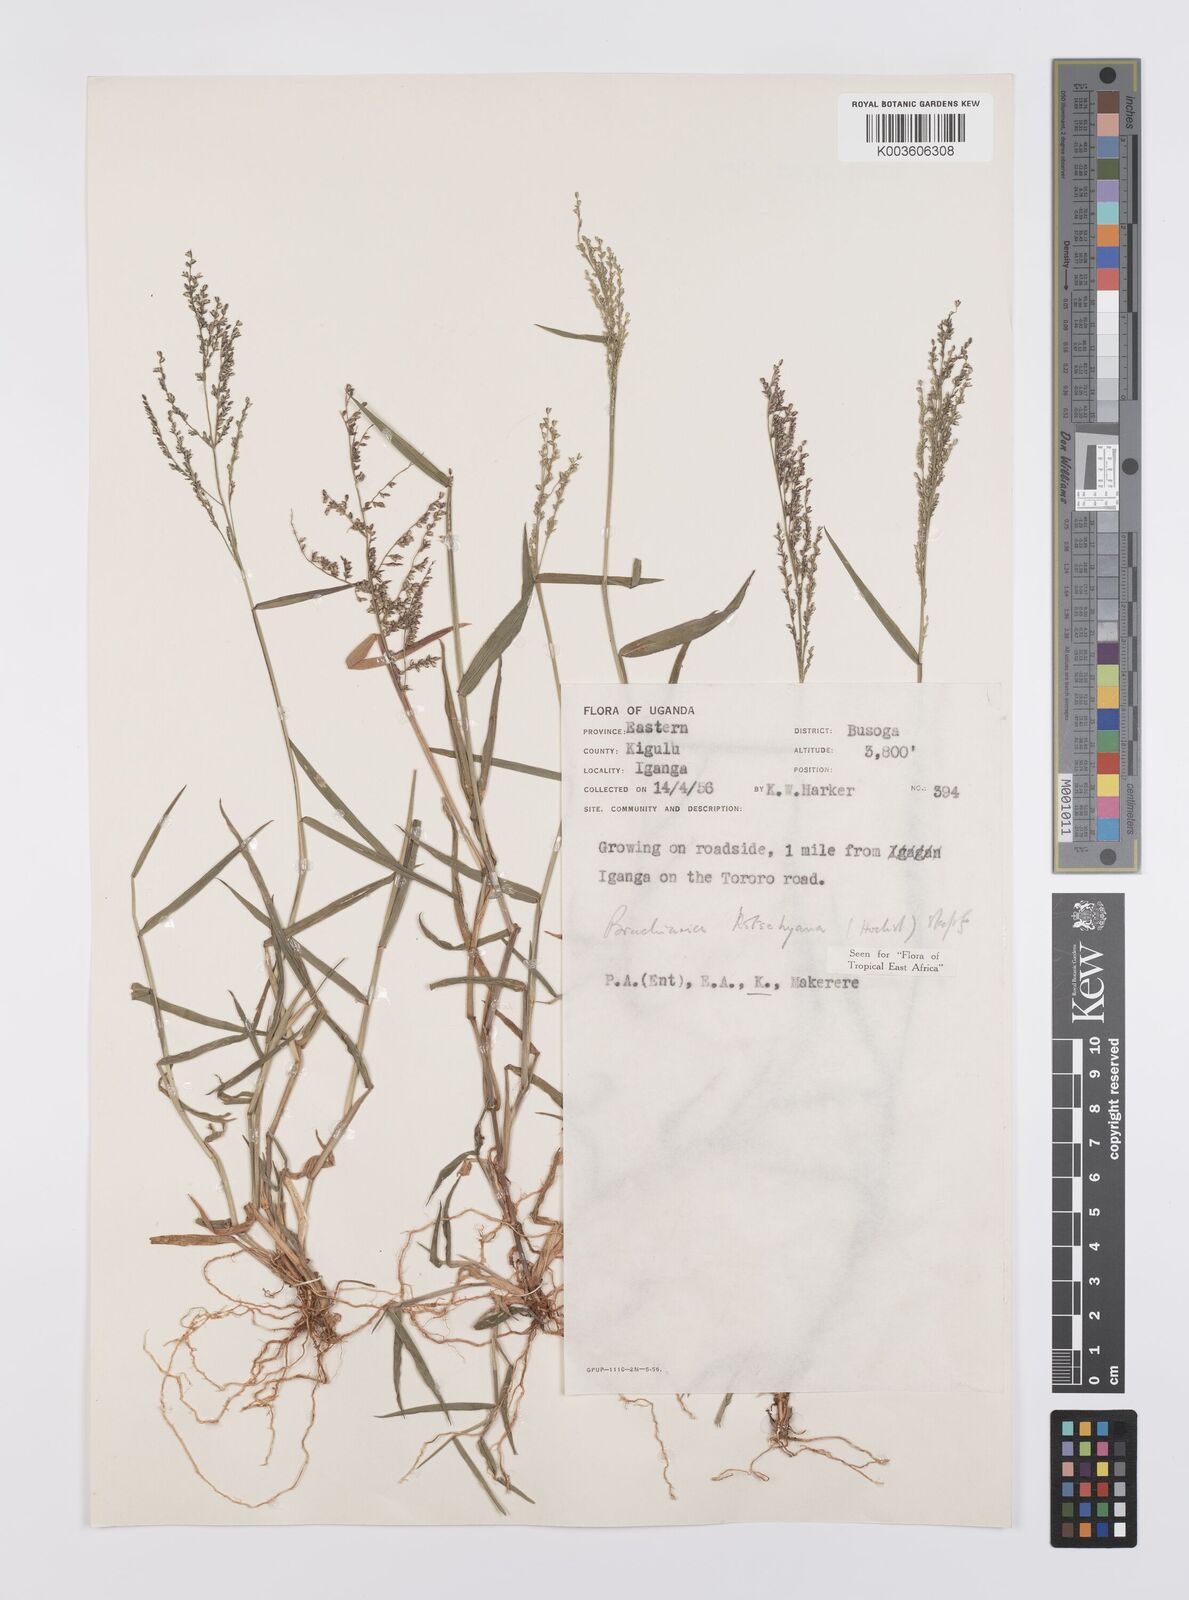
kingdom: Plantae
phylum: Tracheophyta
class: Liliopsida
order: Poales
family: Poaceae
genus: Urochloa
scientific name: Urochloa comata
